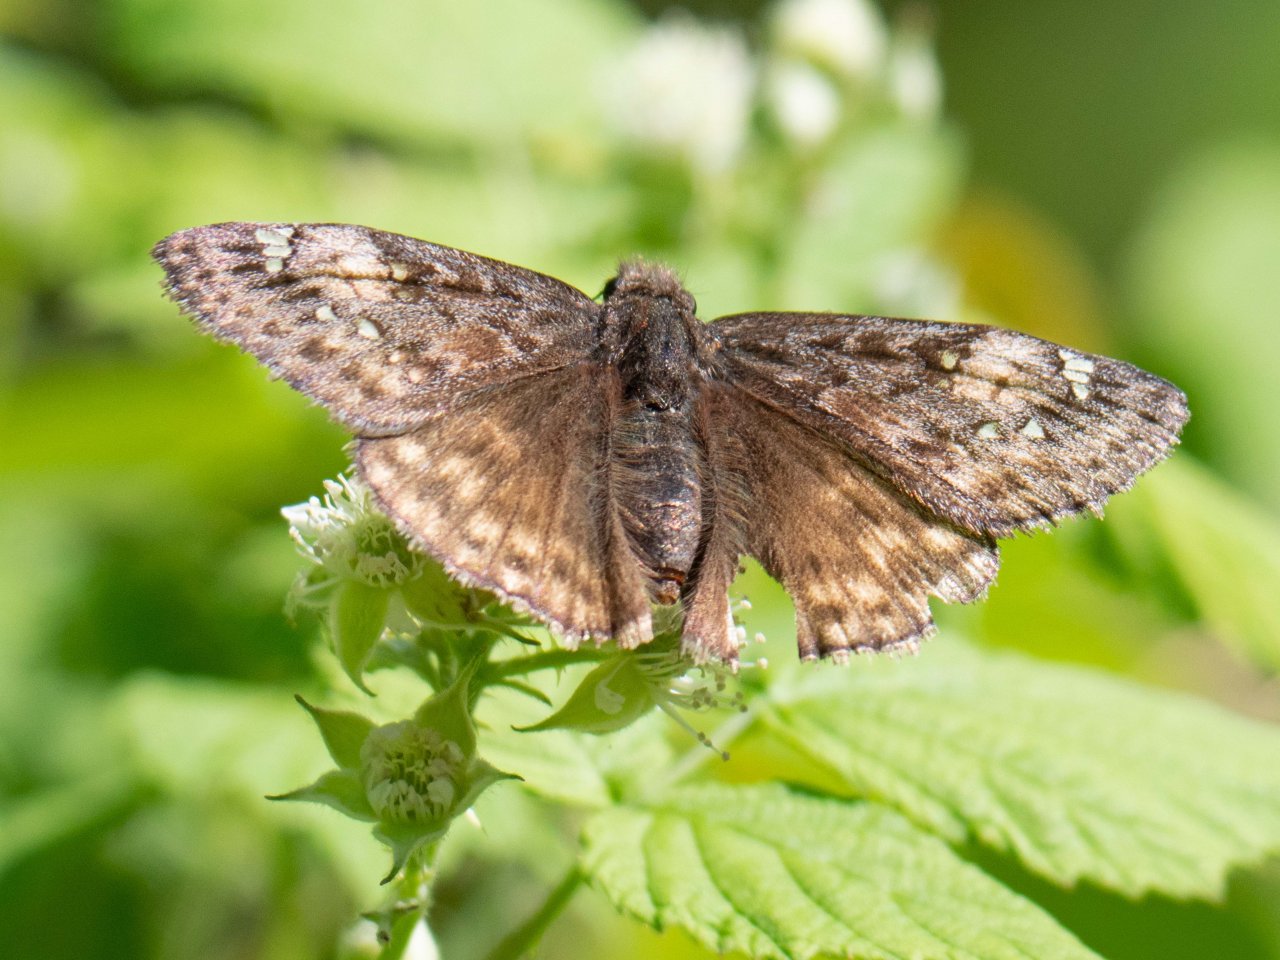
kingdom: Animalia
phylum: Arthropoda
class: Insecta
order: Lepidoptera
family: Hesperiidae
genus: Gesta
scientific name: Gesta
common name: Juvenal's Duskywing
